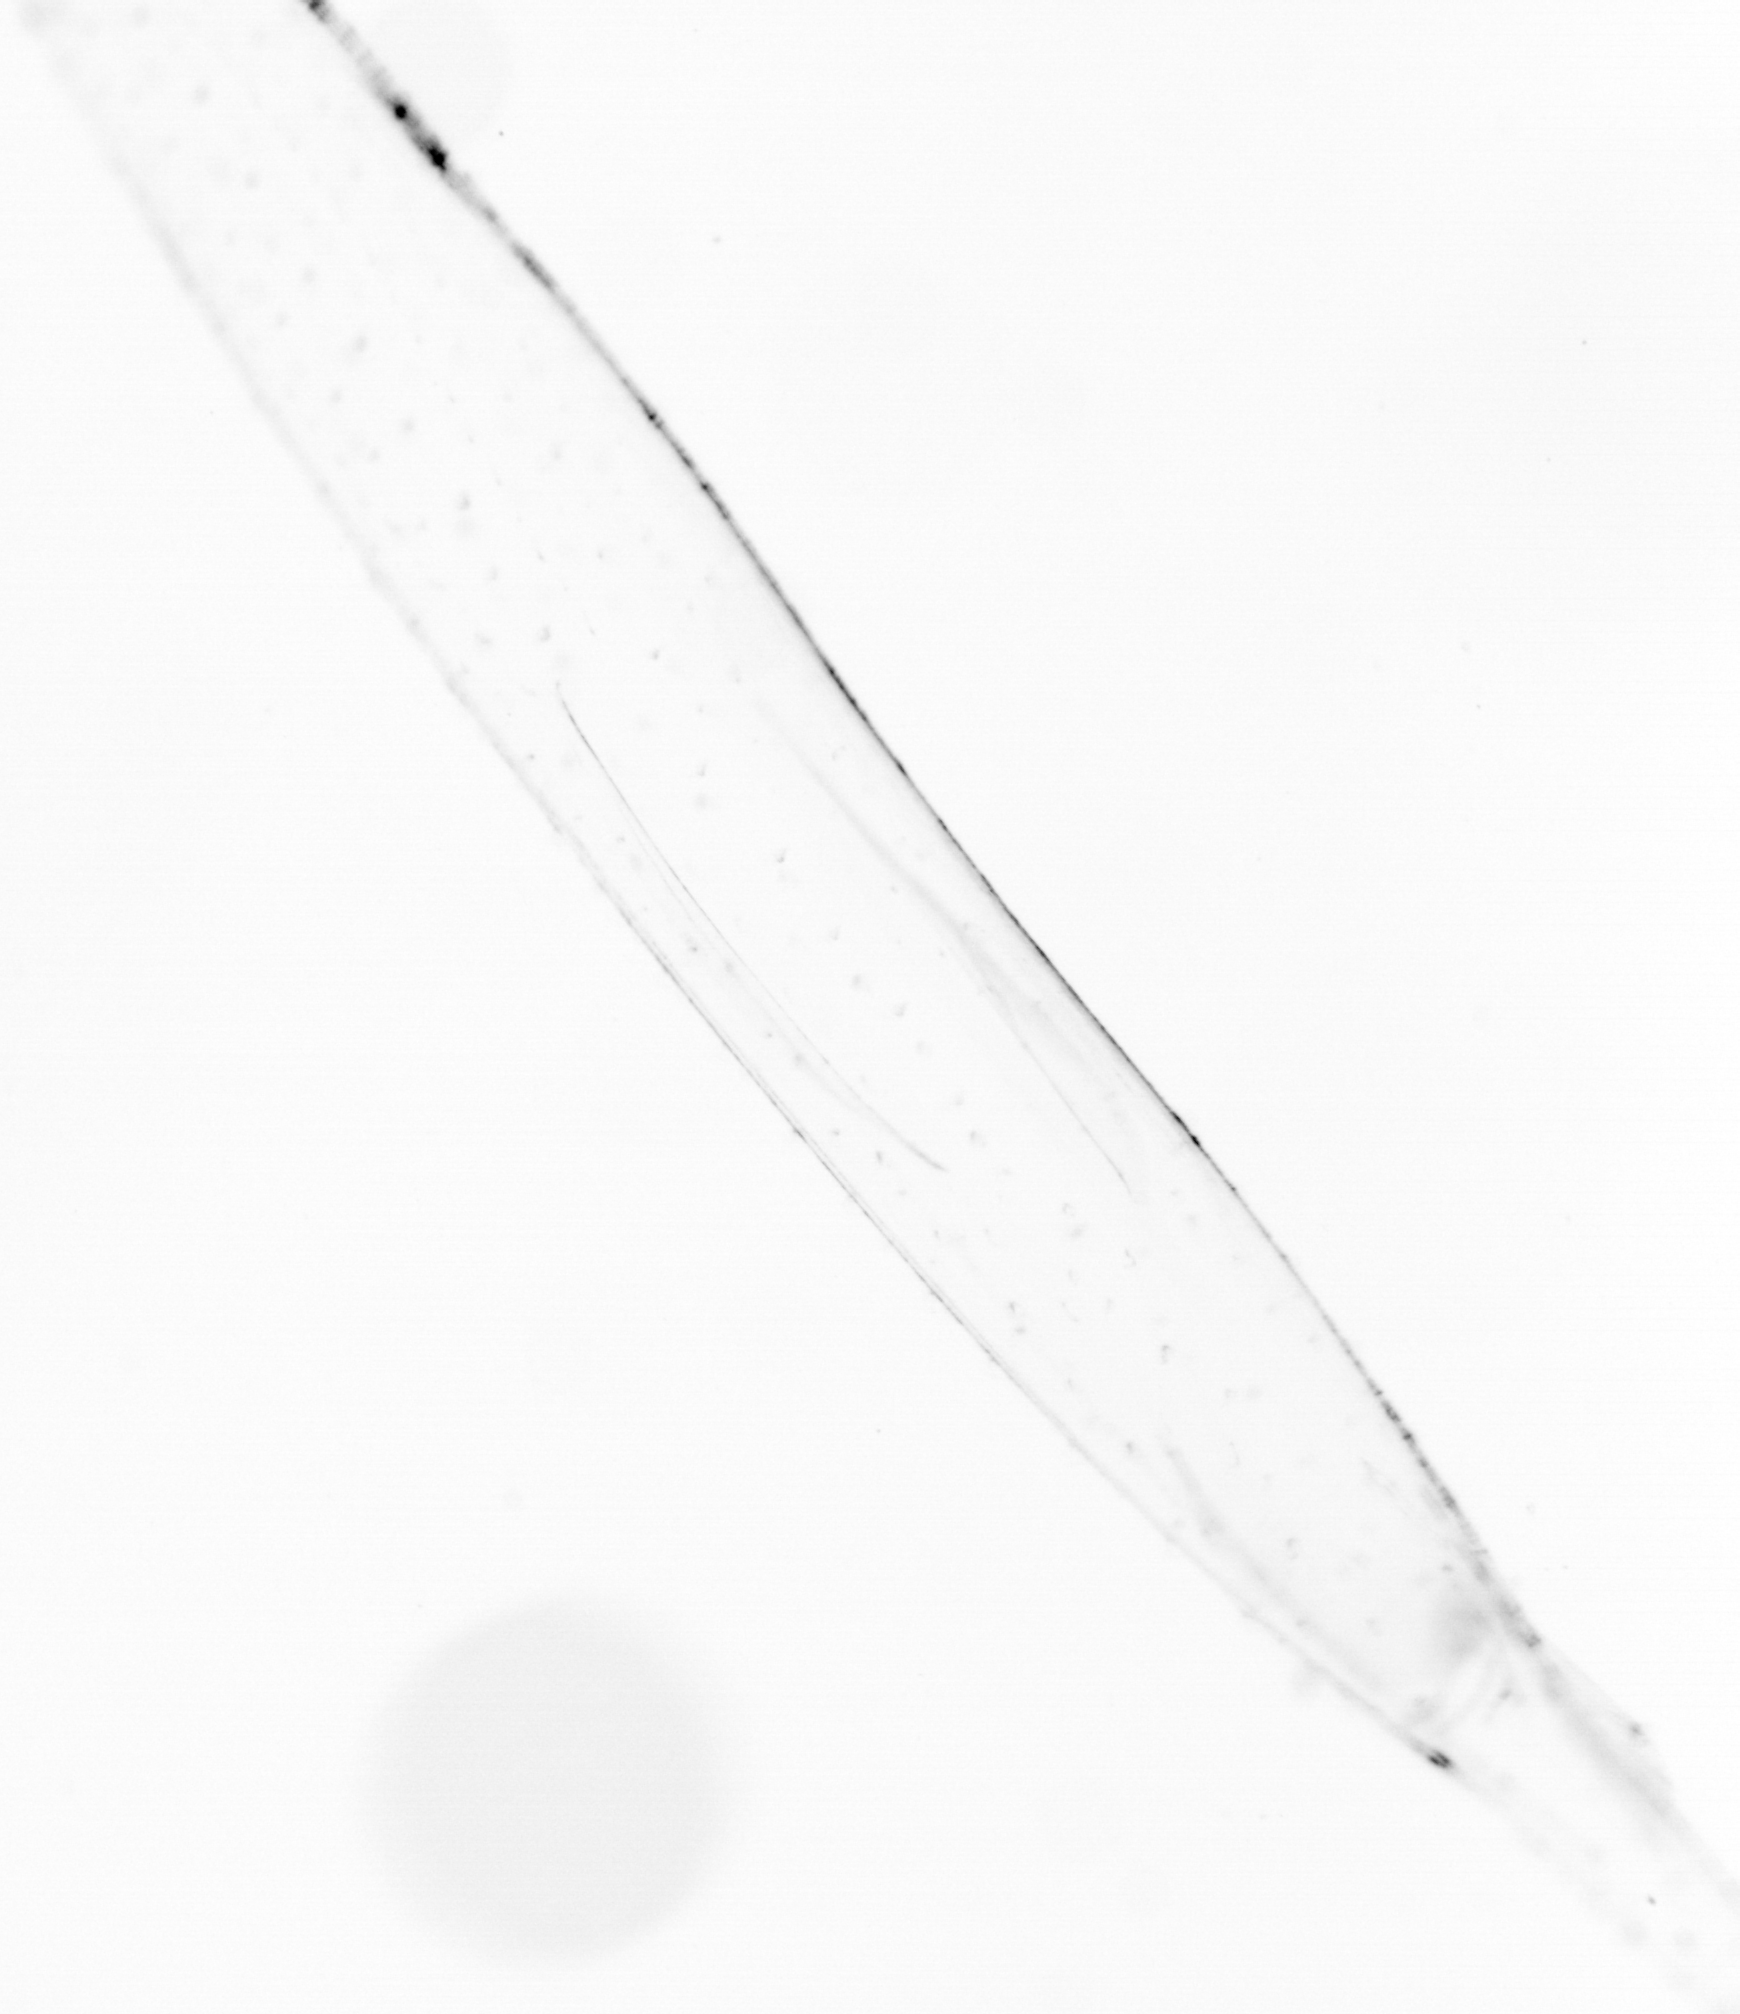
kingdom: Animalia
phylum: Chaetognatha
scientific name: Chaetognatha
